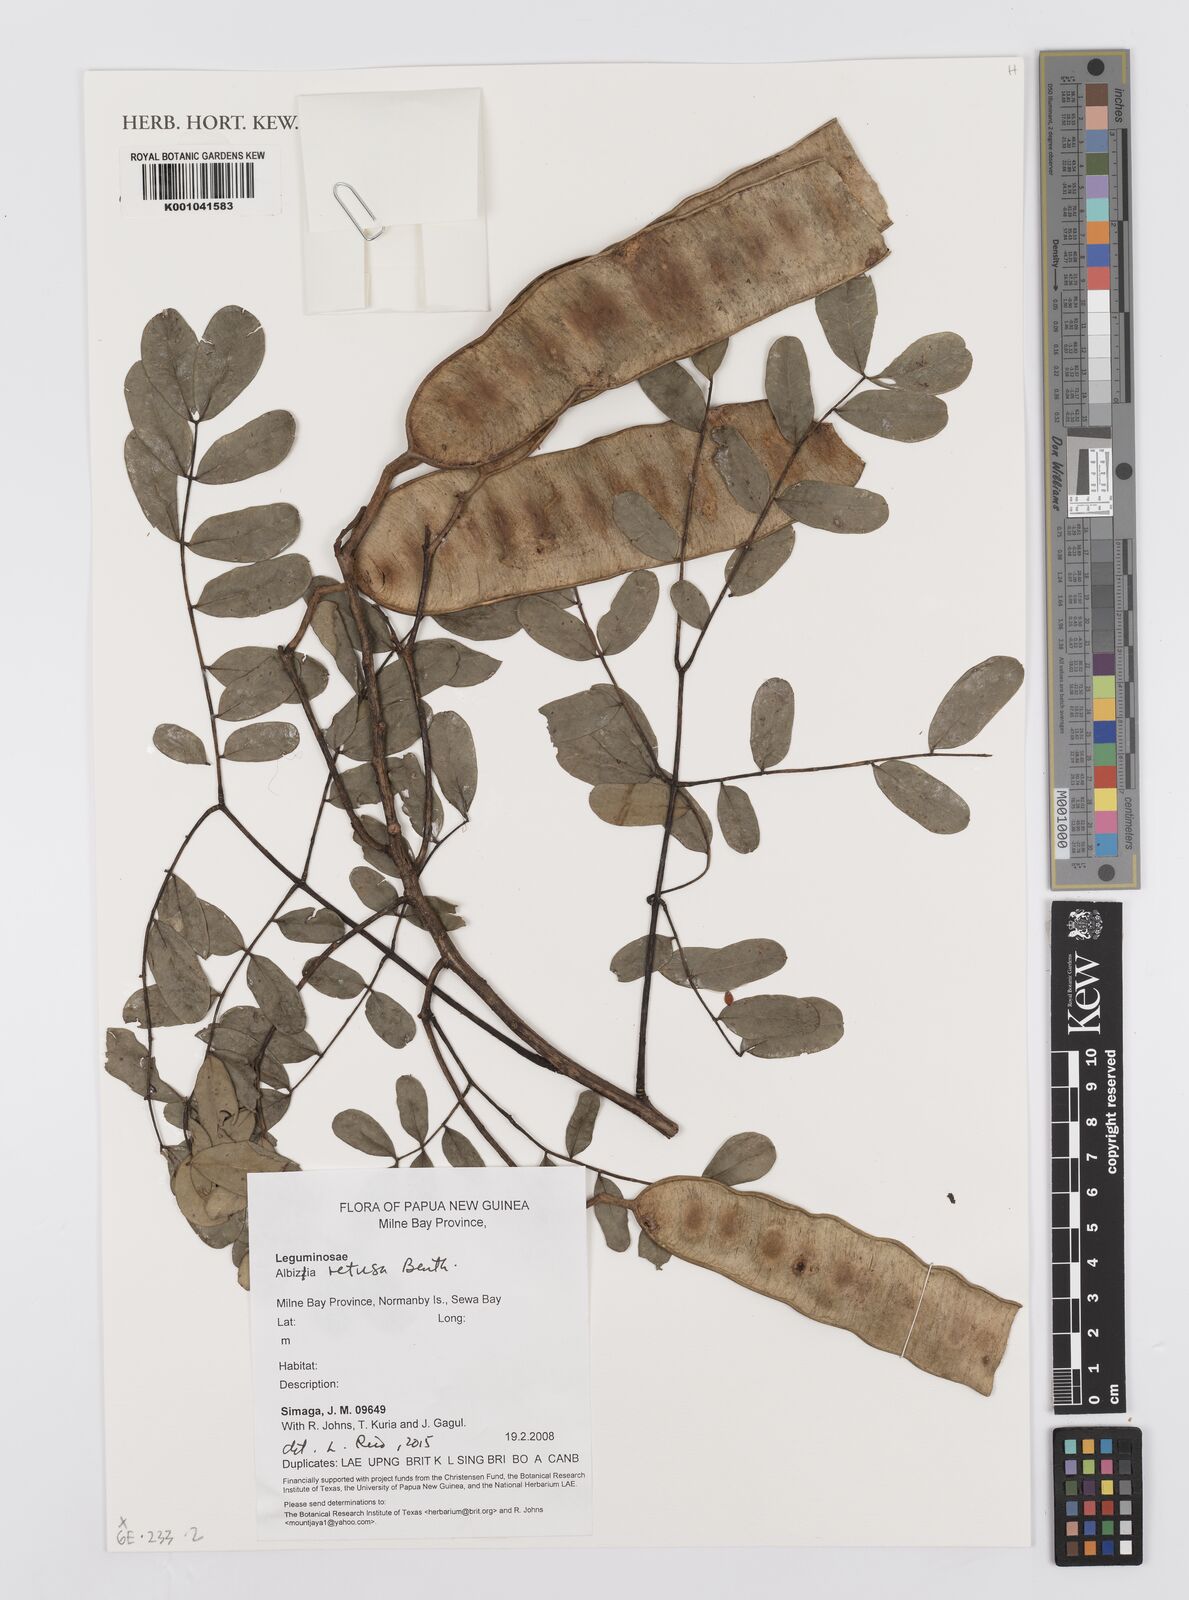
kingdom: Plantae
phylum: Tracheophyta
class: Magnoliopsida
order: Fabales
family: Fabaceae
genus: Albizia
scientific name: Albizia retusa
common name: Sea albizia
